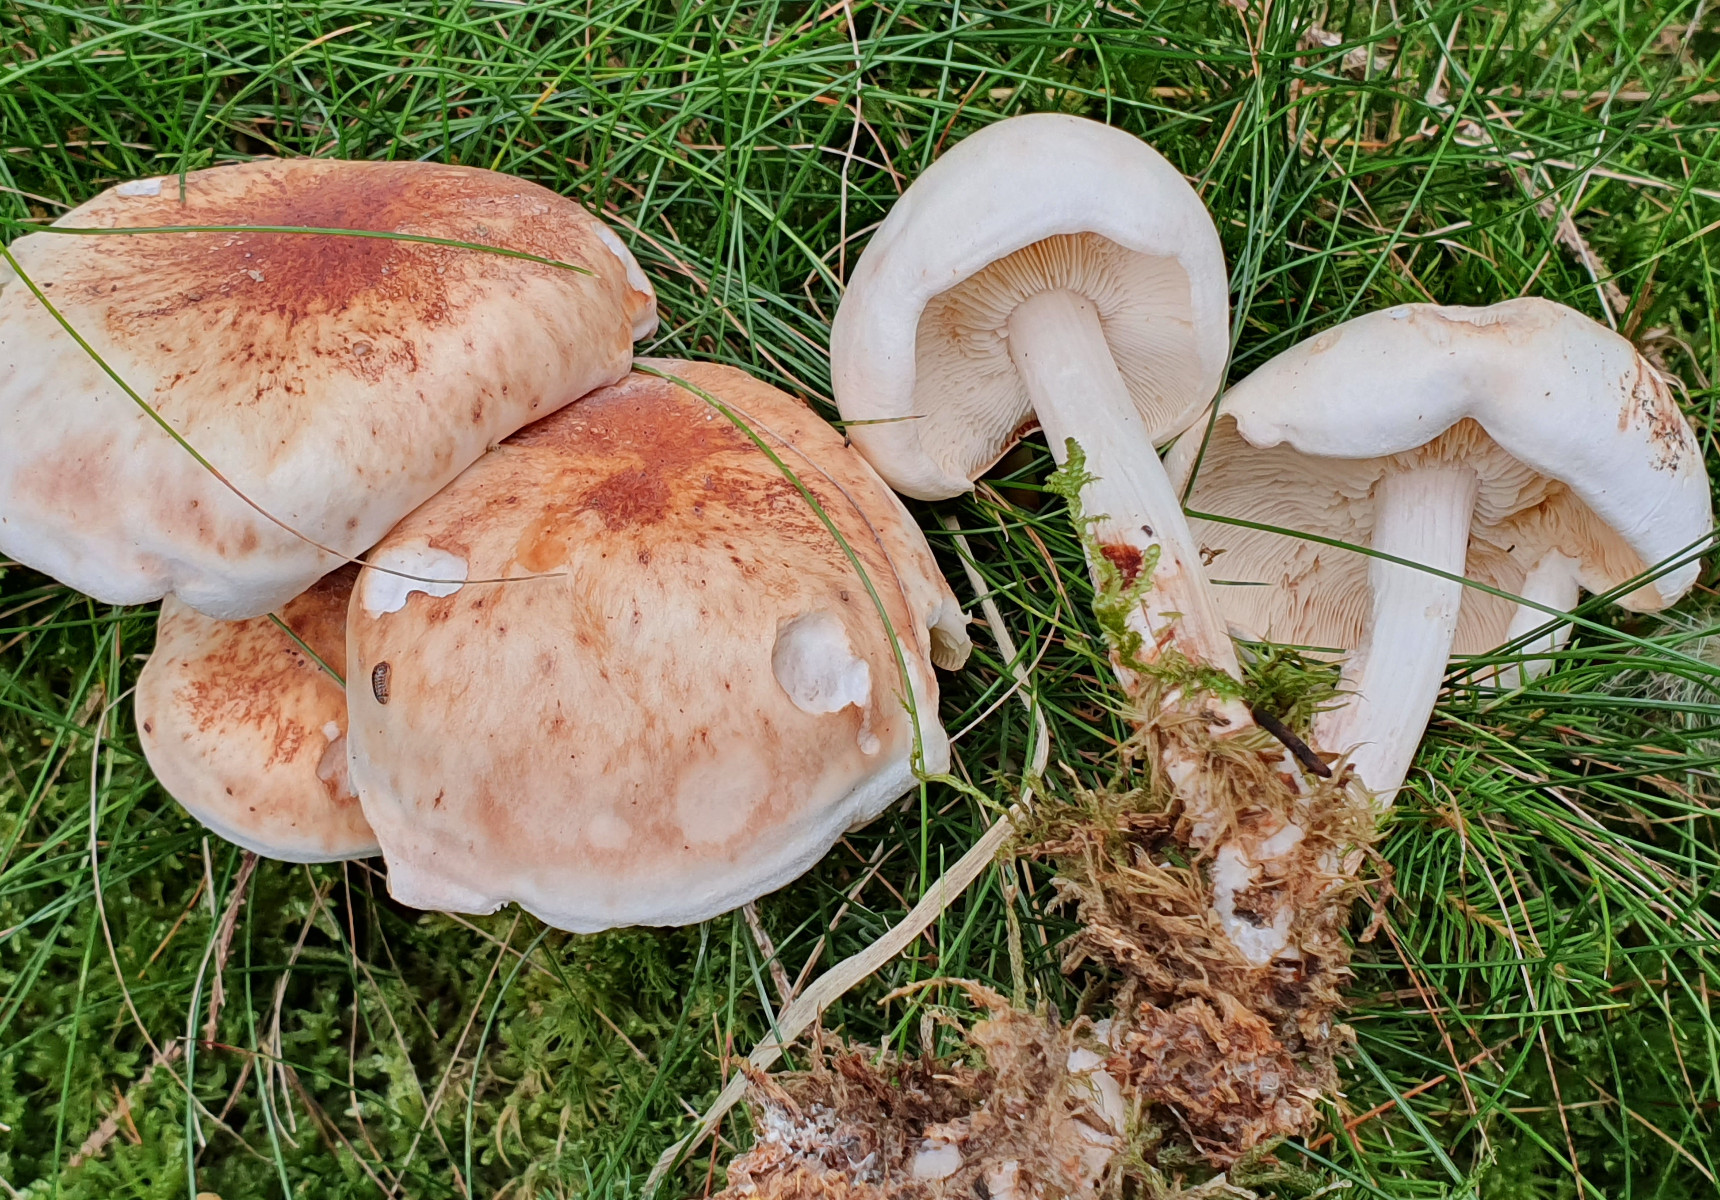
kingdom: Fungi
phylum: Basidiomycota
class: Agaricomycetes
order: Agaricales
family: Omphalotaceae
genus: Rhodocollybia
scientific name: Rhodocollybia maculata
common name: plettet fladhat
